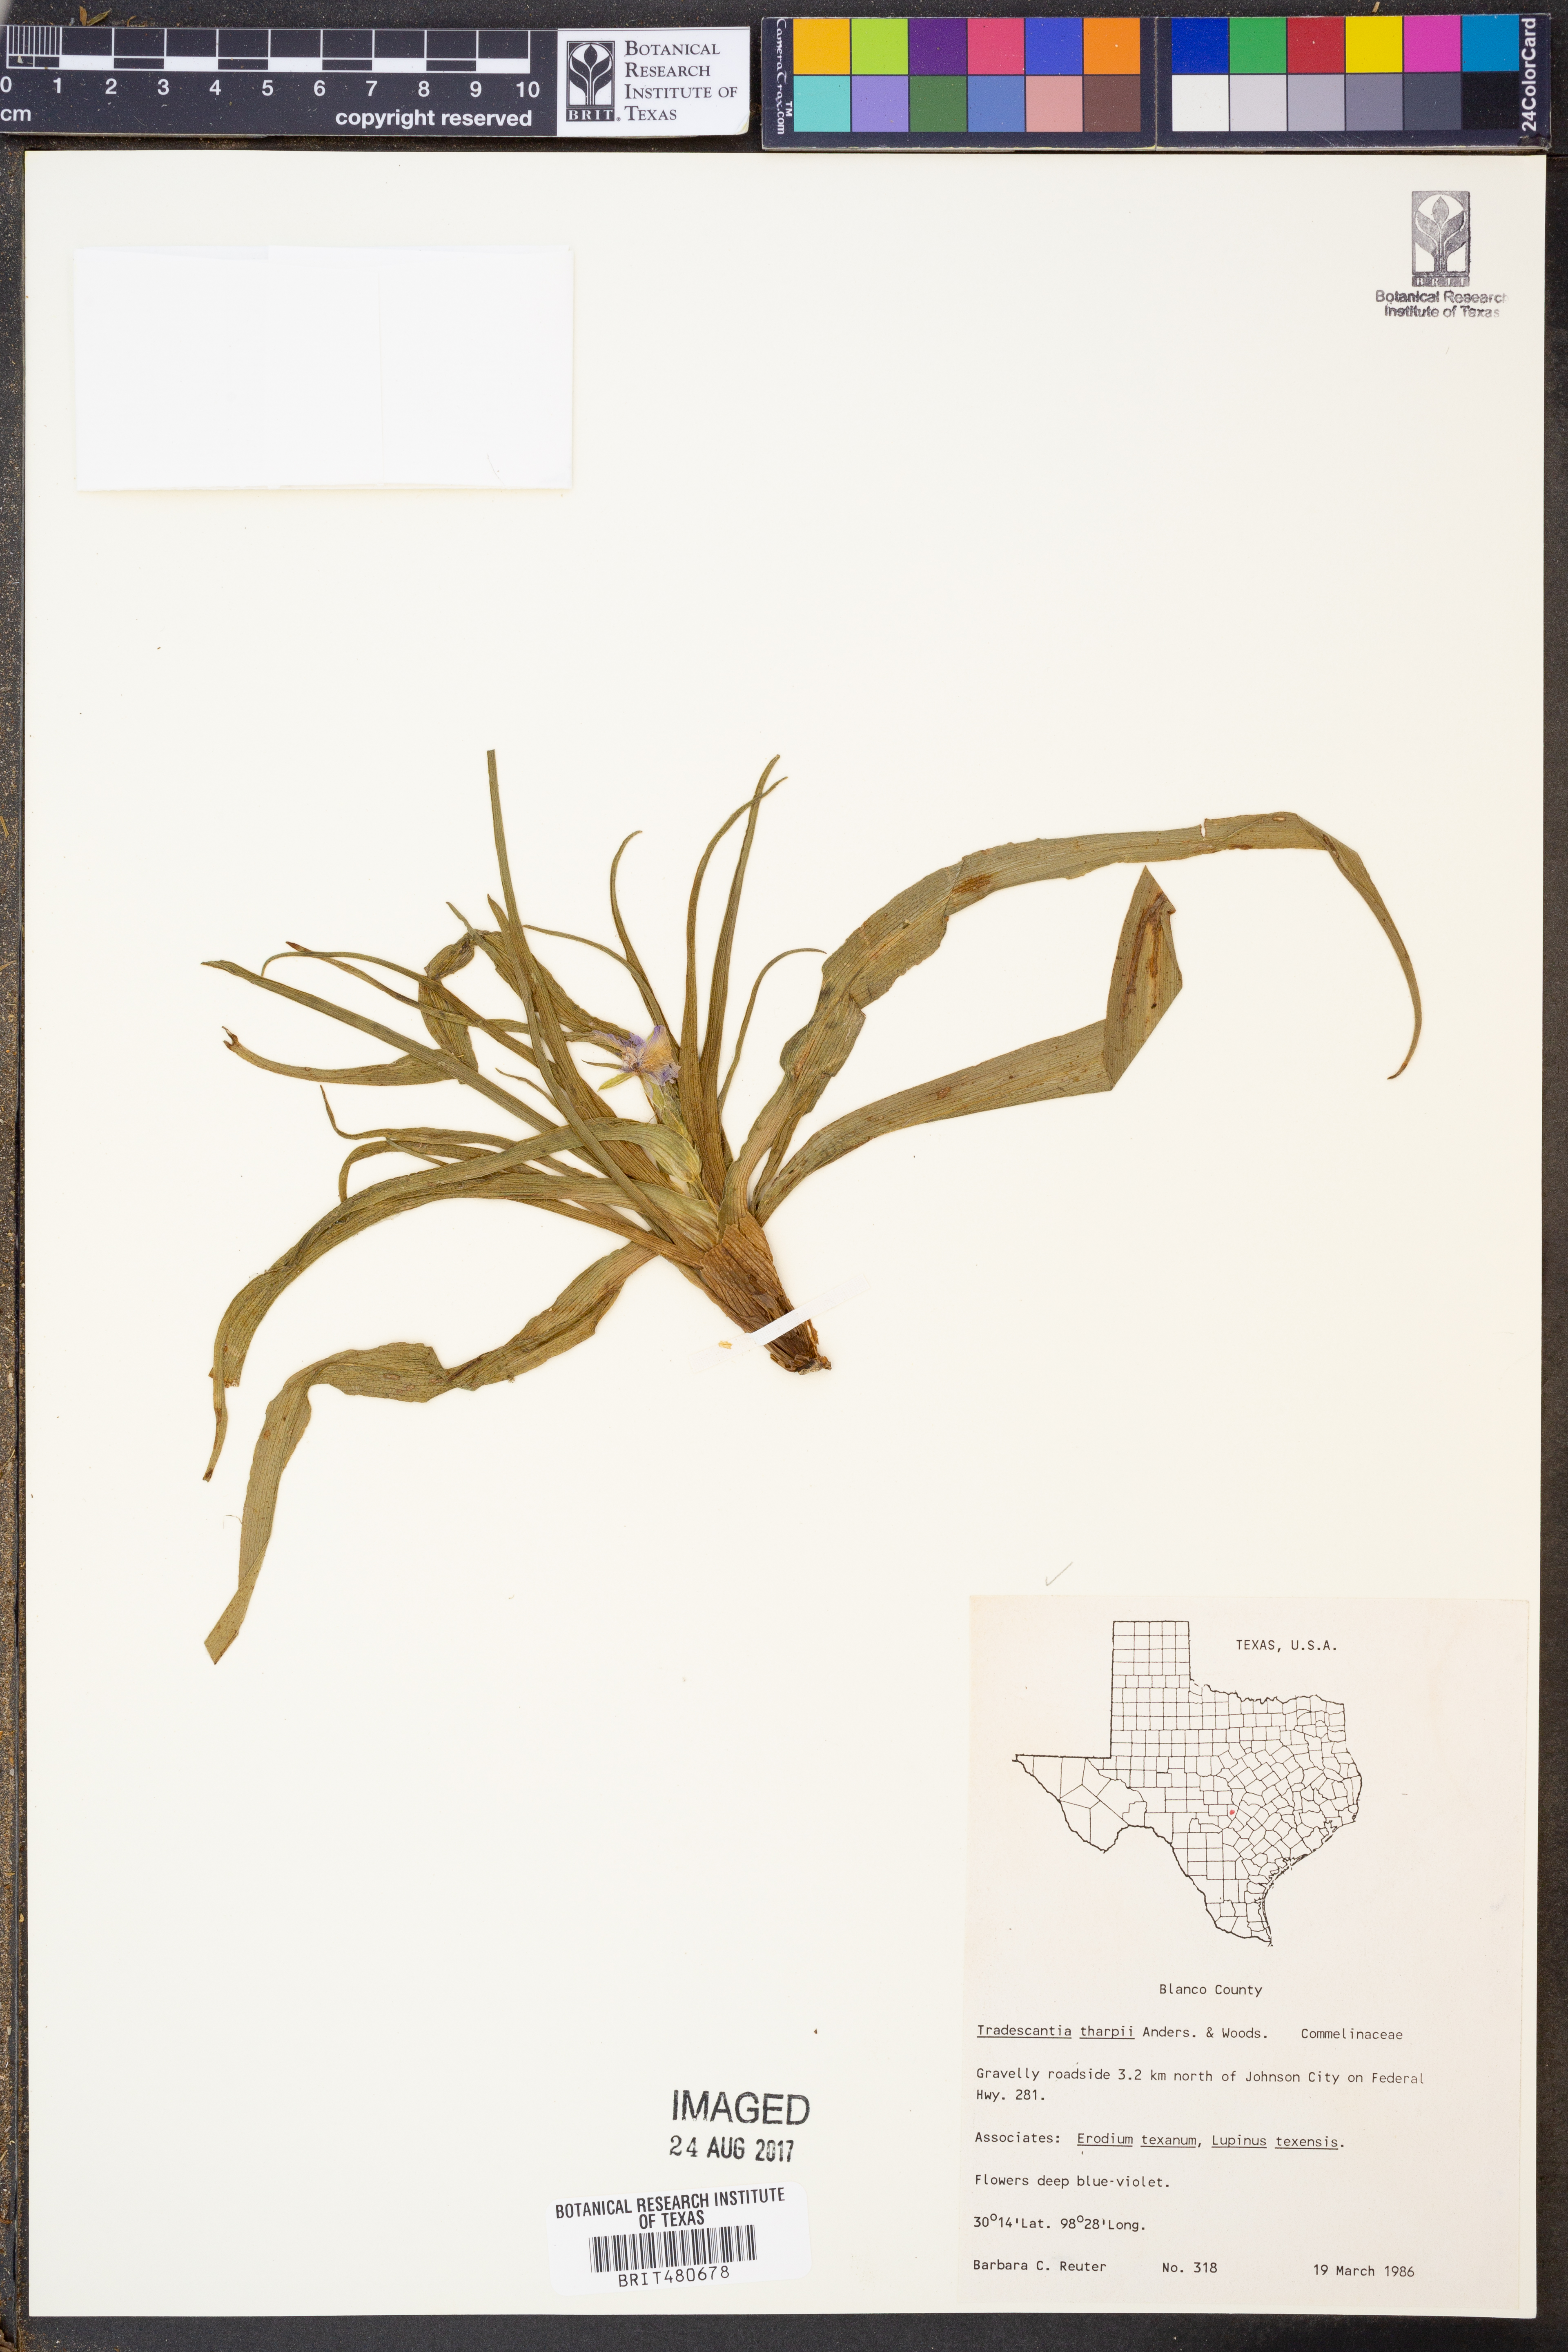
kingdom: Plantae
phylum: Tracheophyta
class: Liliopsida
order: Commelinales
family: Commelinaceae
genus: Tradescantia
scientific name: Tradescantia tharpii
